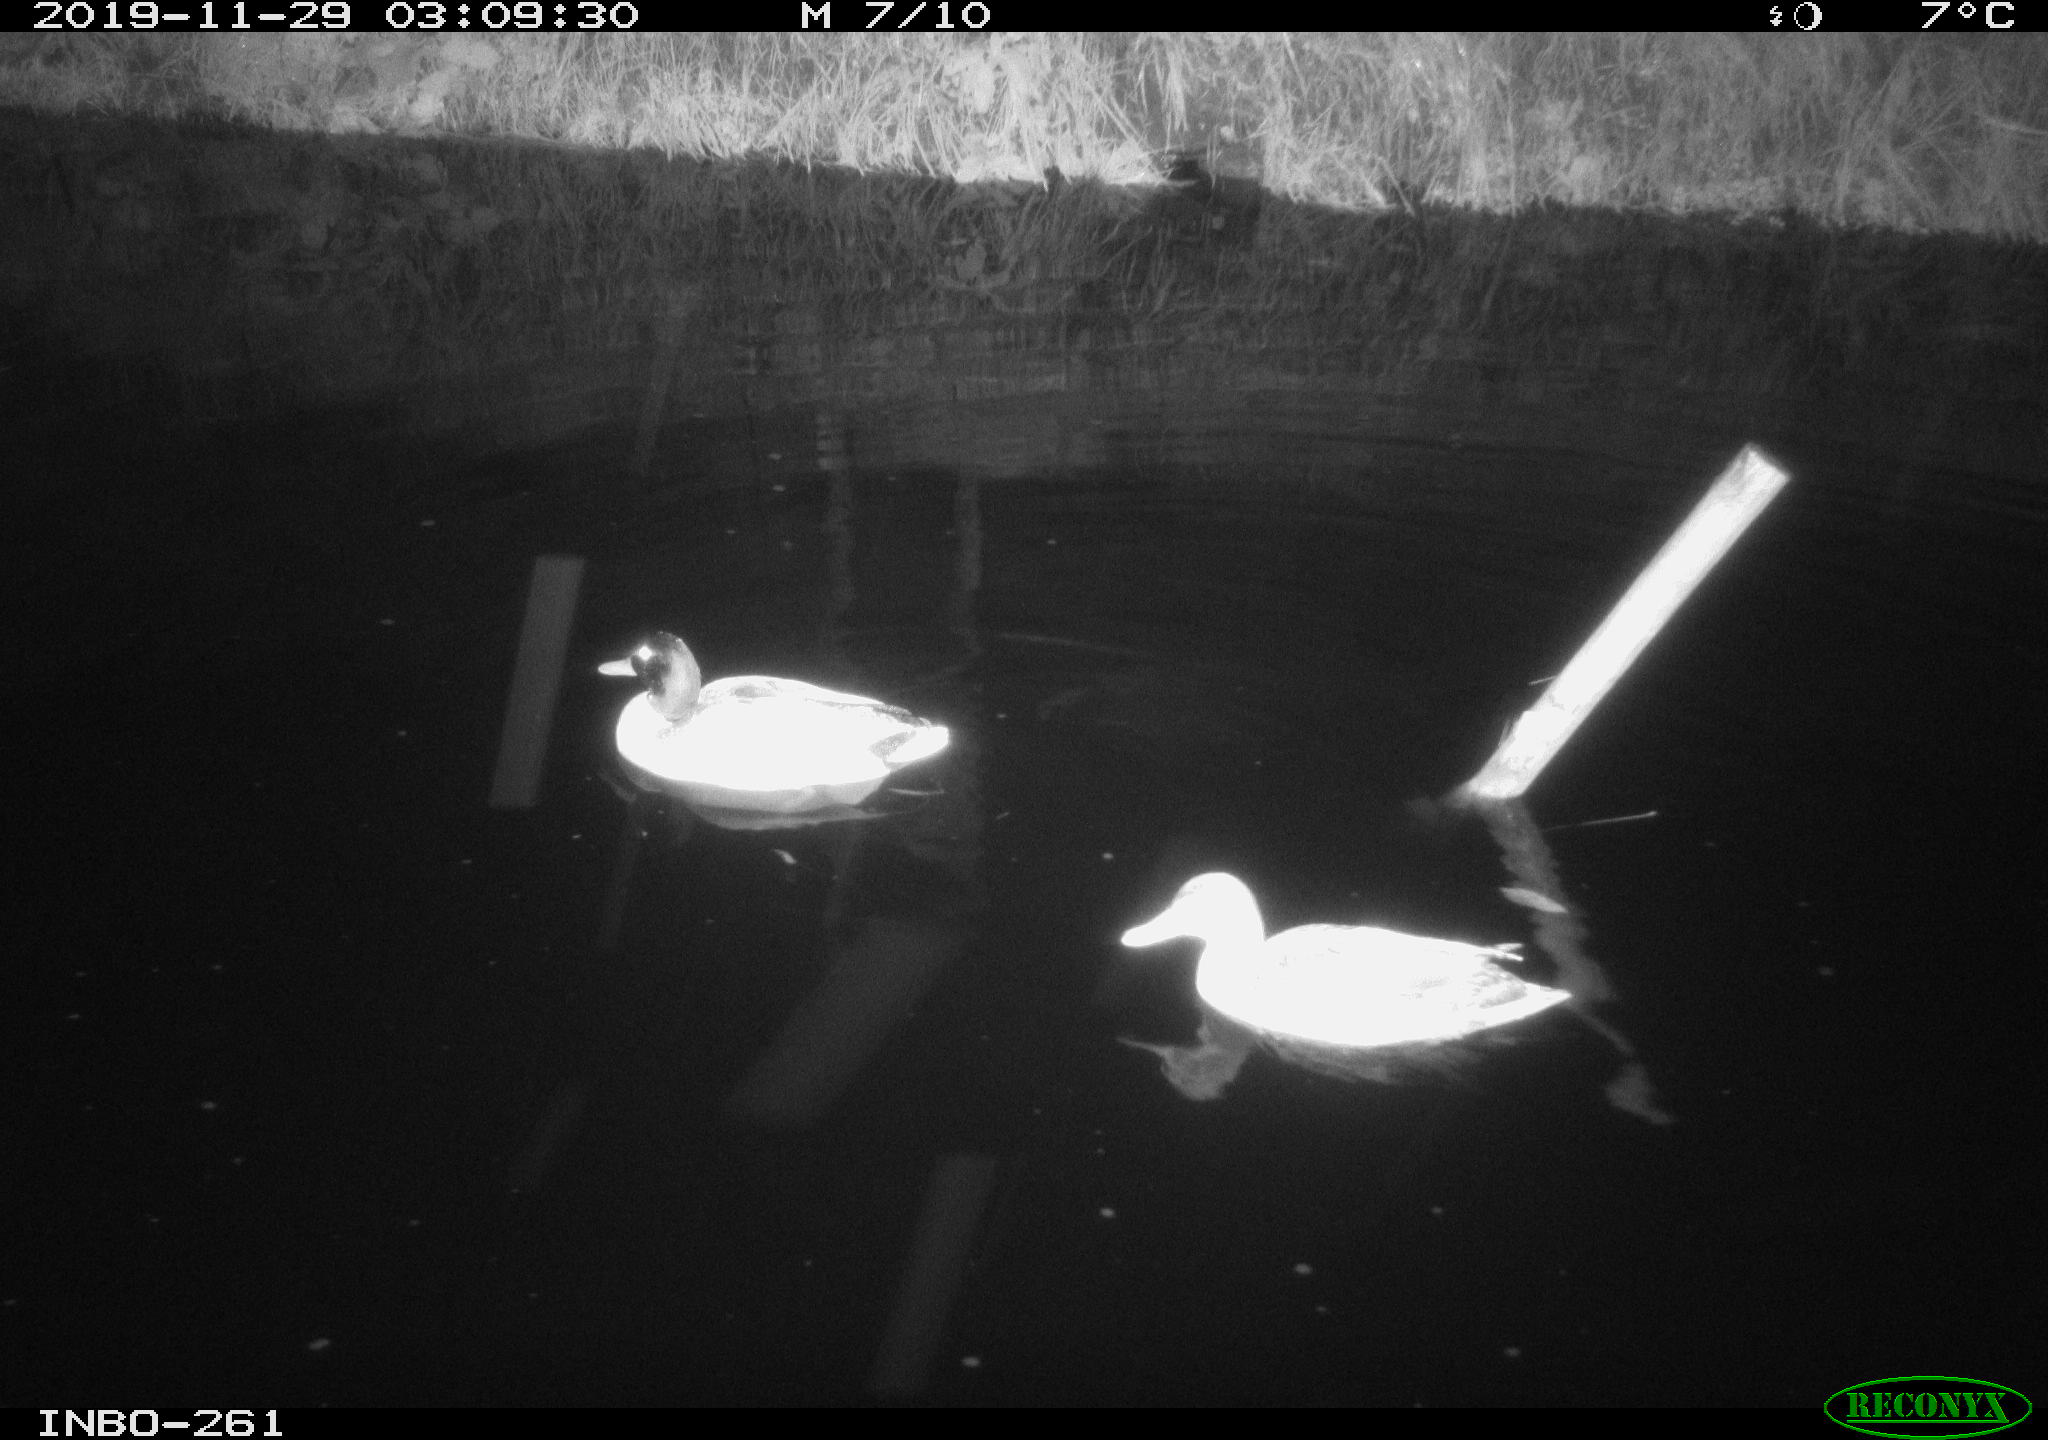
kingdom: Animalia
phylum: Chordata
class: Aves
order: Anseriformes
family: Anatidae
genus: Anas
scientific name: Anas platyrhynchos
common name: Mallard
